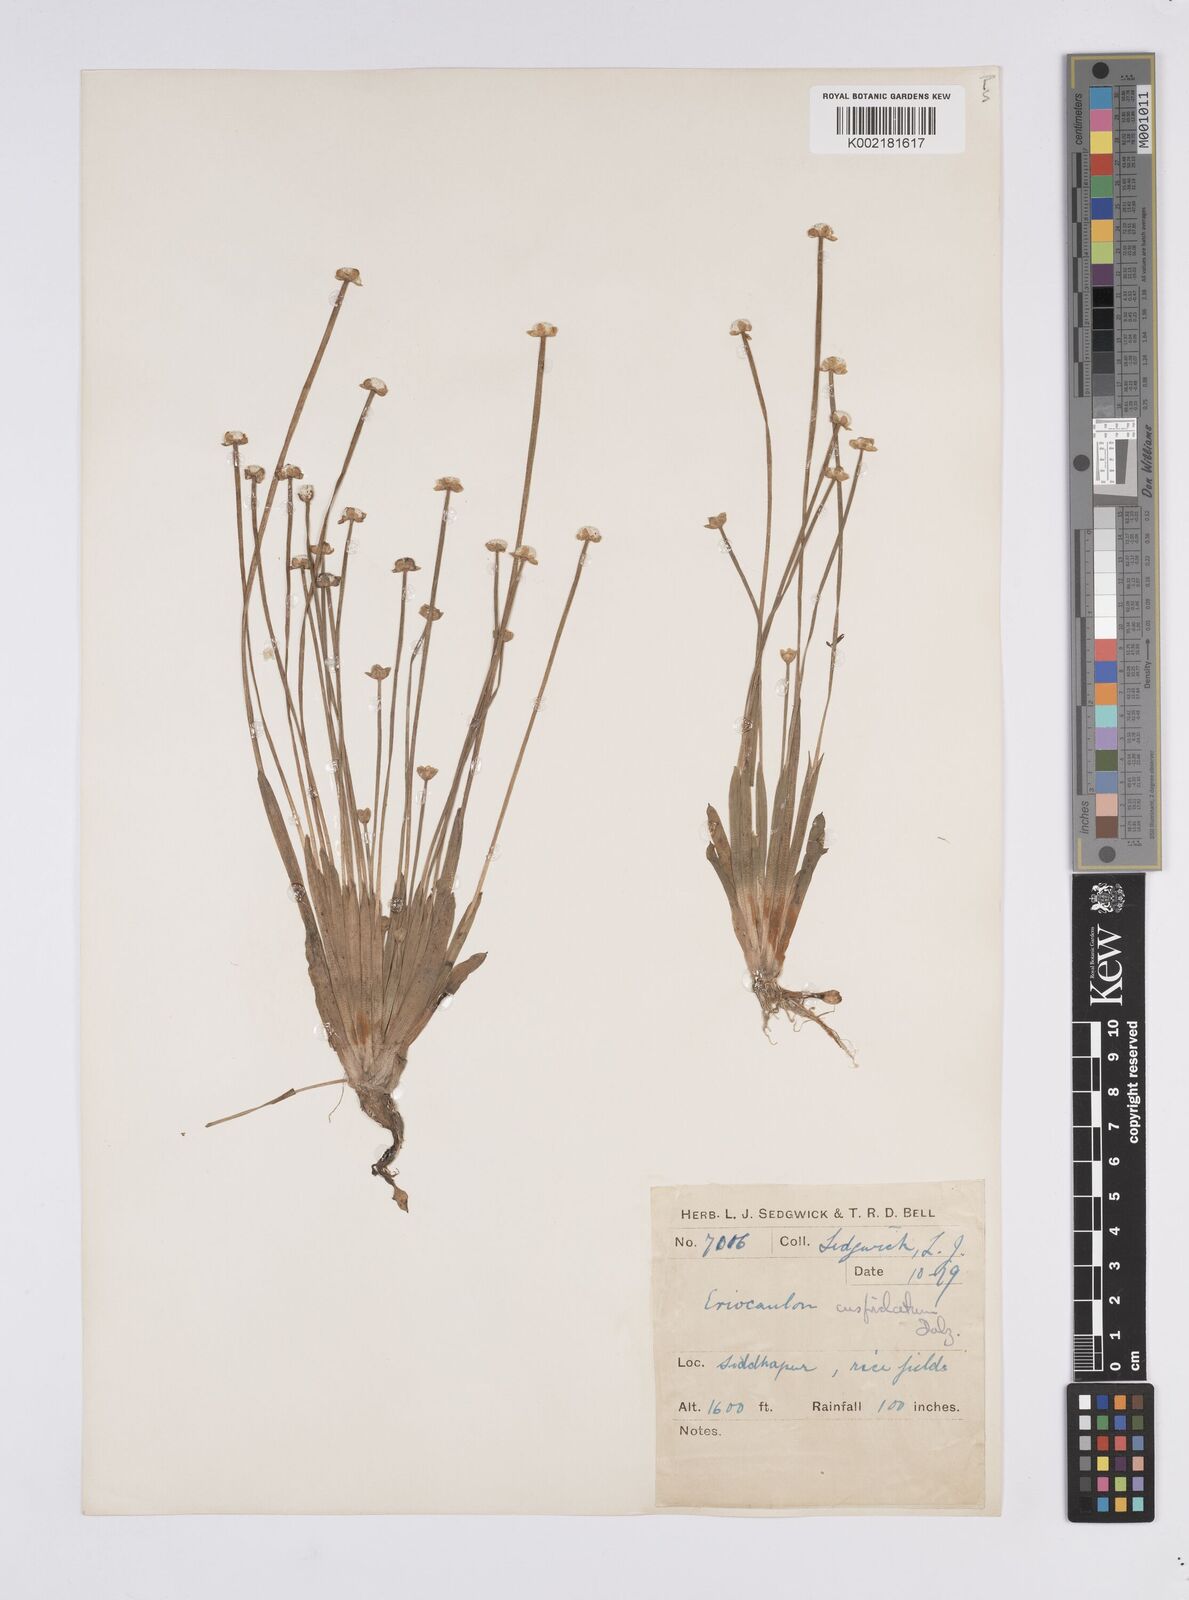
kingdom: Plantae
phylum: Tracheophyta
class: Liliopsida
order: Poales
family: Eriocaulaceae
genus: Eriocaulon
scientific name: Eriocaulon fysonii
